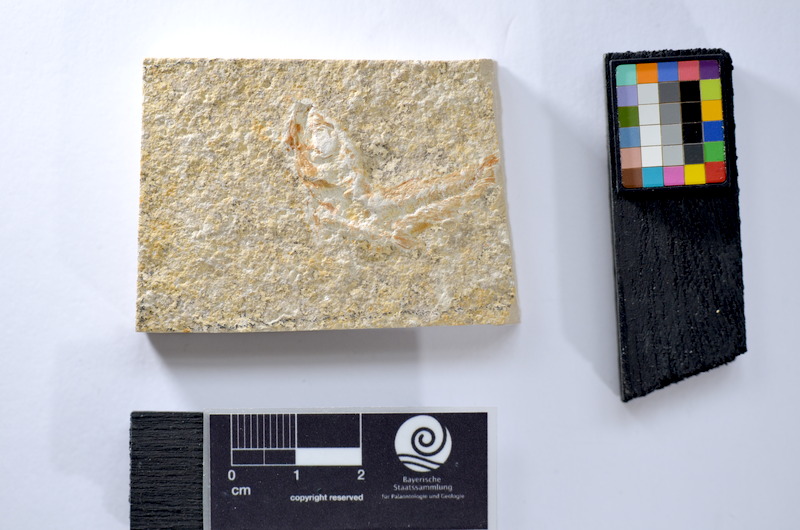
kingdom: Animalia
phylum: Chordata
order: Salmoniformes
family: Orthogonikleithridae
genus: Leptolepides
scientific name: Leptolepides
